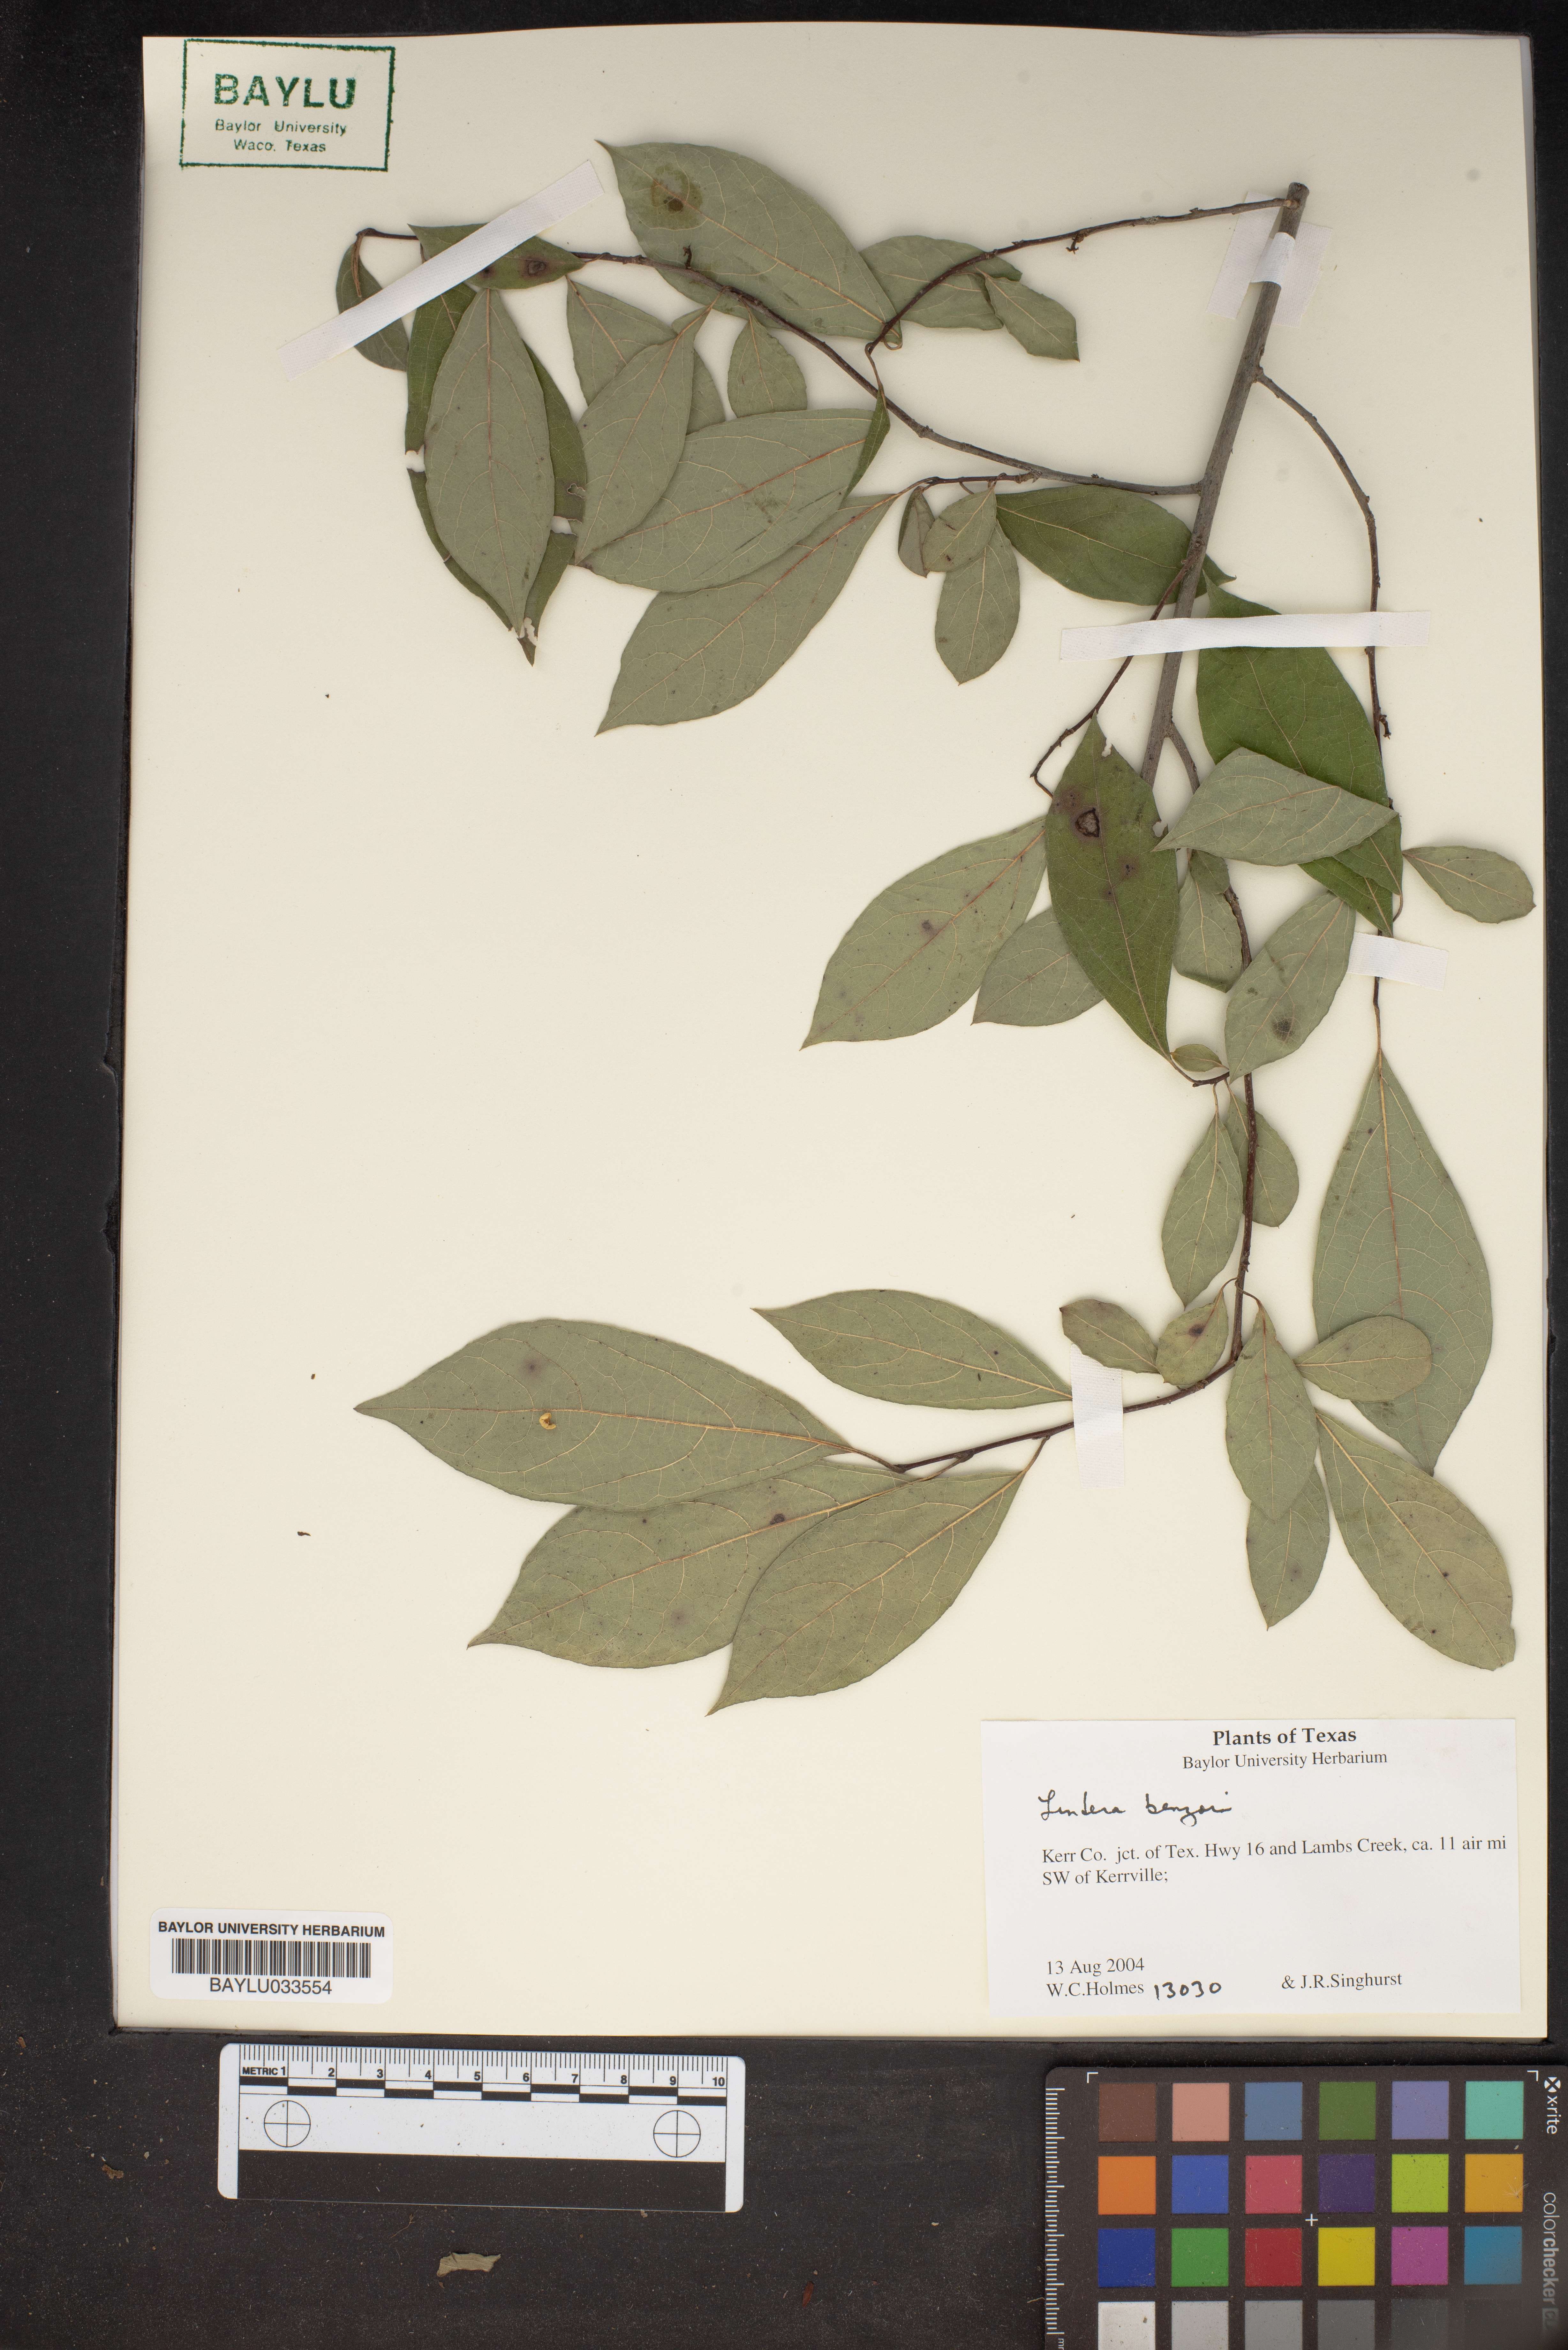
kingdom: Plantae
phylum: Tracheophyta
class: Magnoliopsida
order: Laurales
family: Lauraceae
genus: Lindera
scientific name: Lindera benzoin
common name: Spicebush
